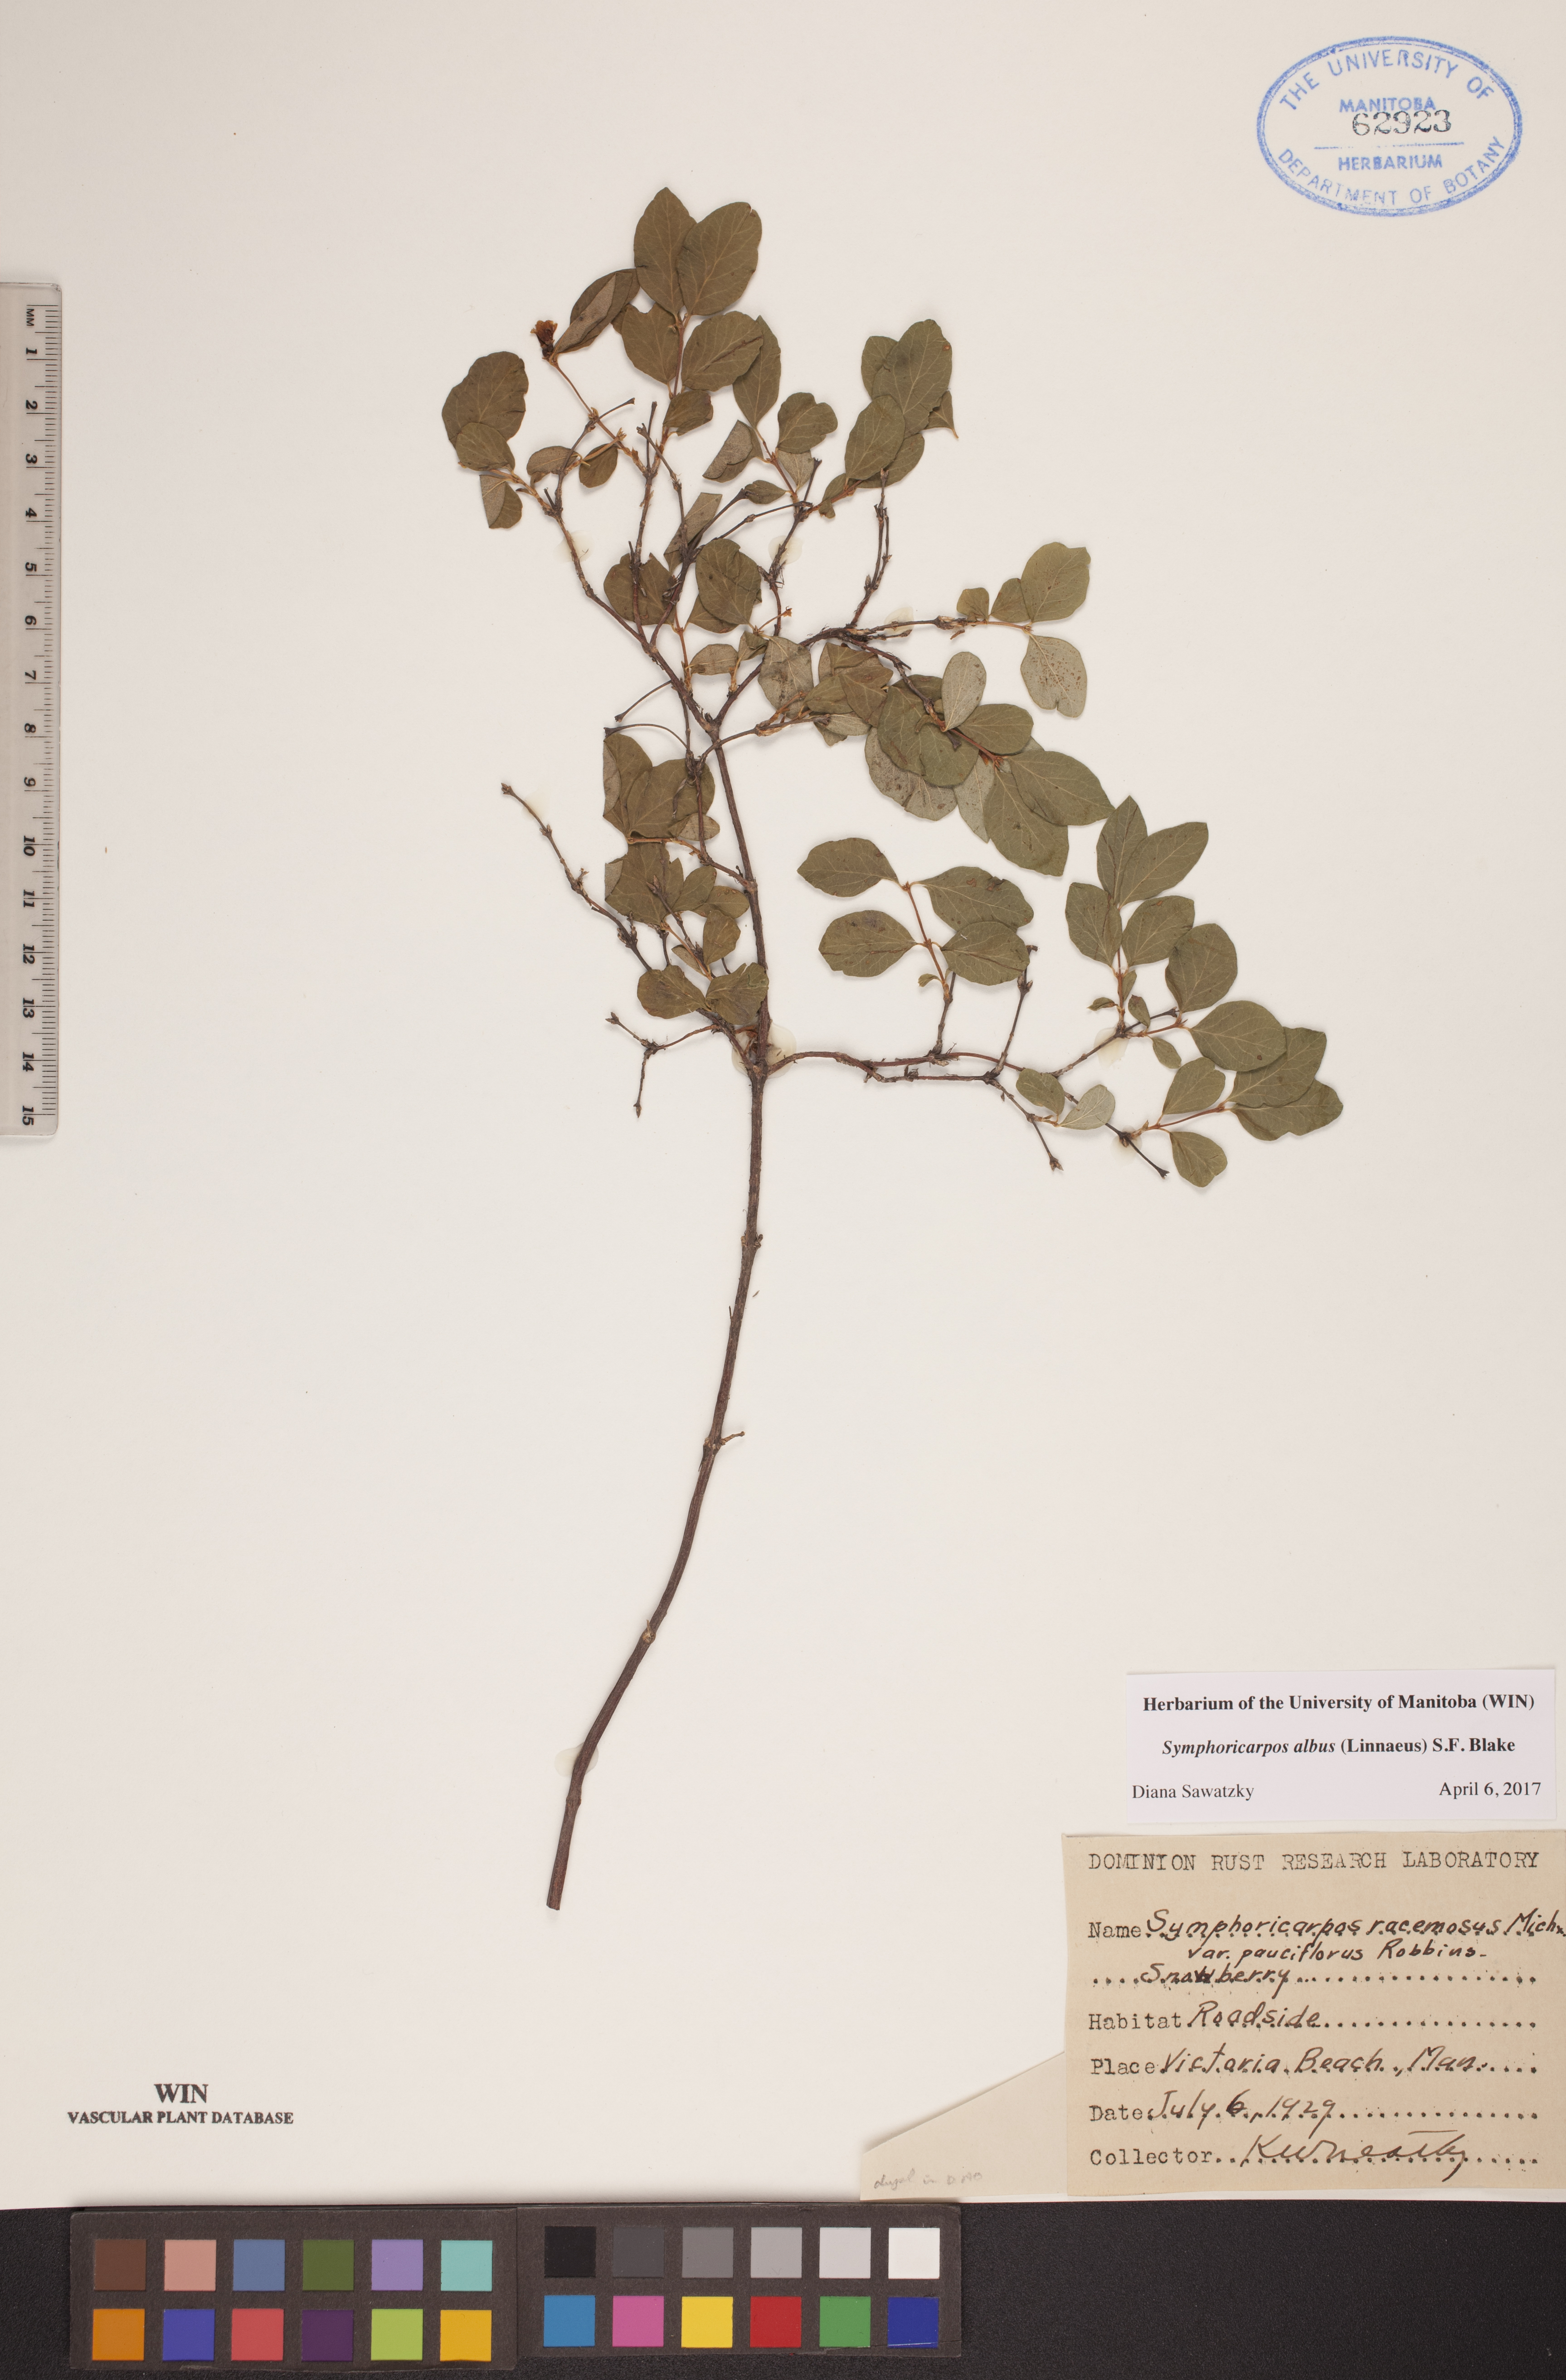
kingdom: Plantae
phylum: Tracheophyta
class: Magnoliopsida
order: Dipsacales
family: Caprifoliaceae
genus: Symphoricarpos
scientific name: Symphoricarpos albus
